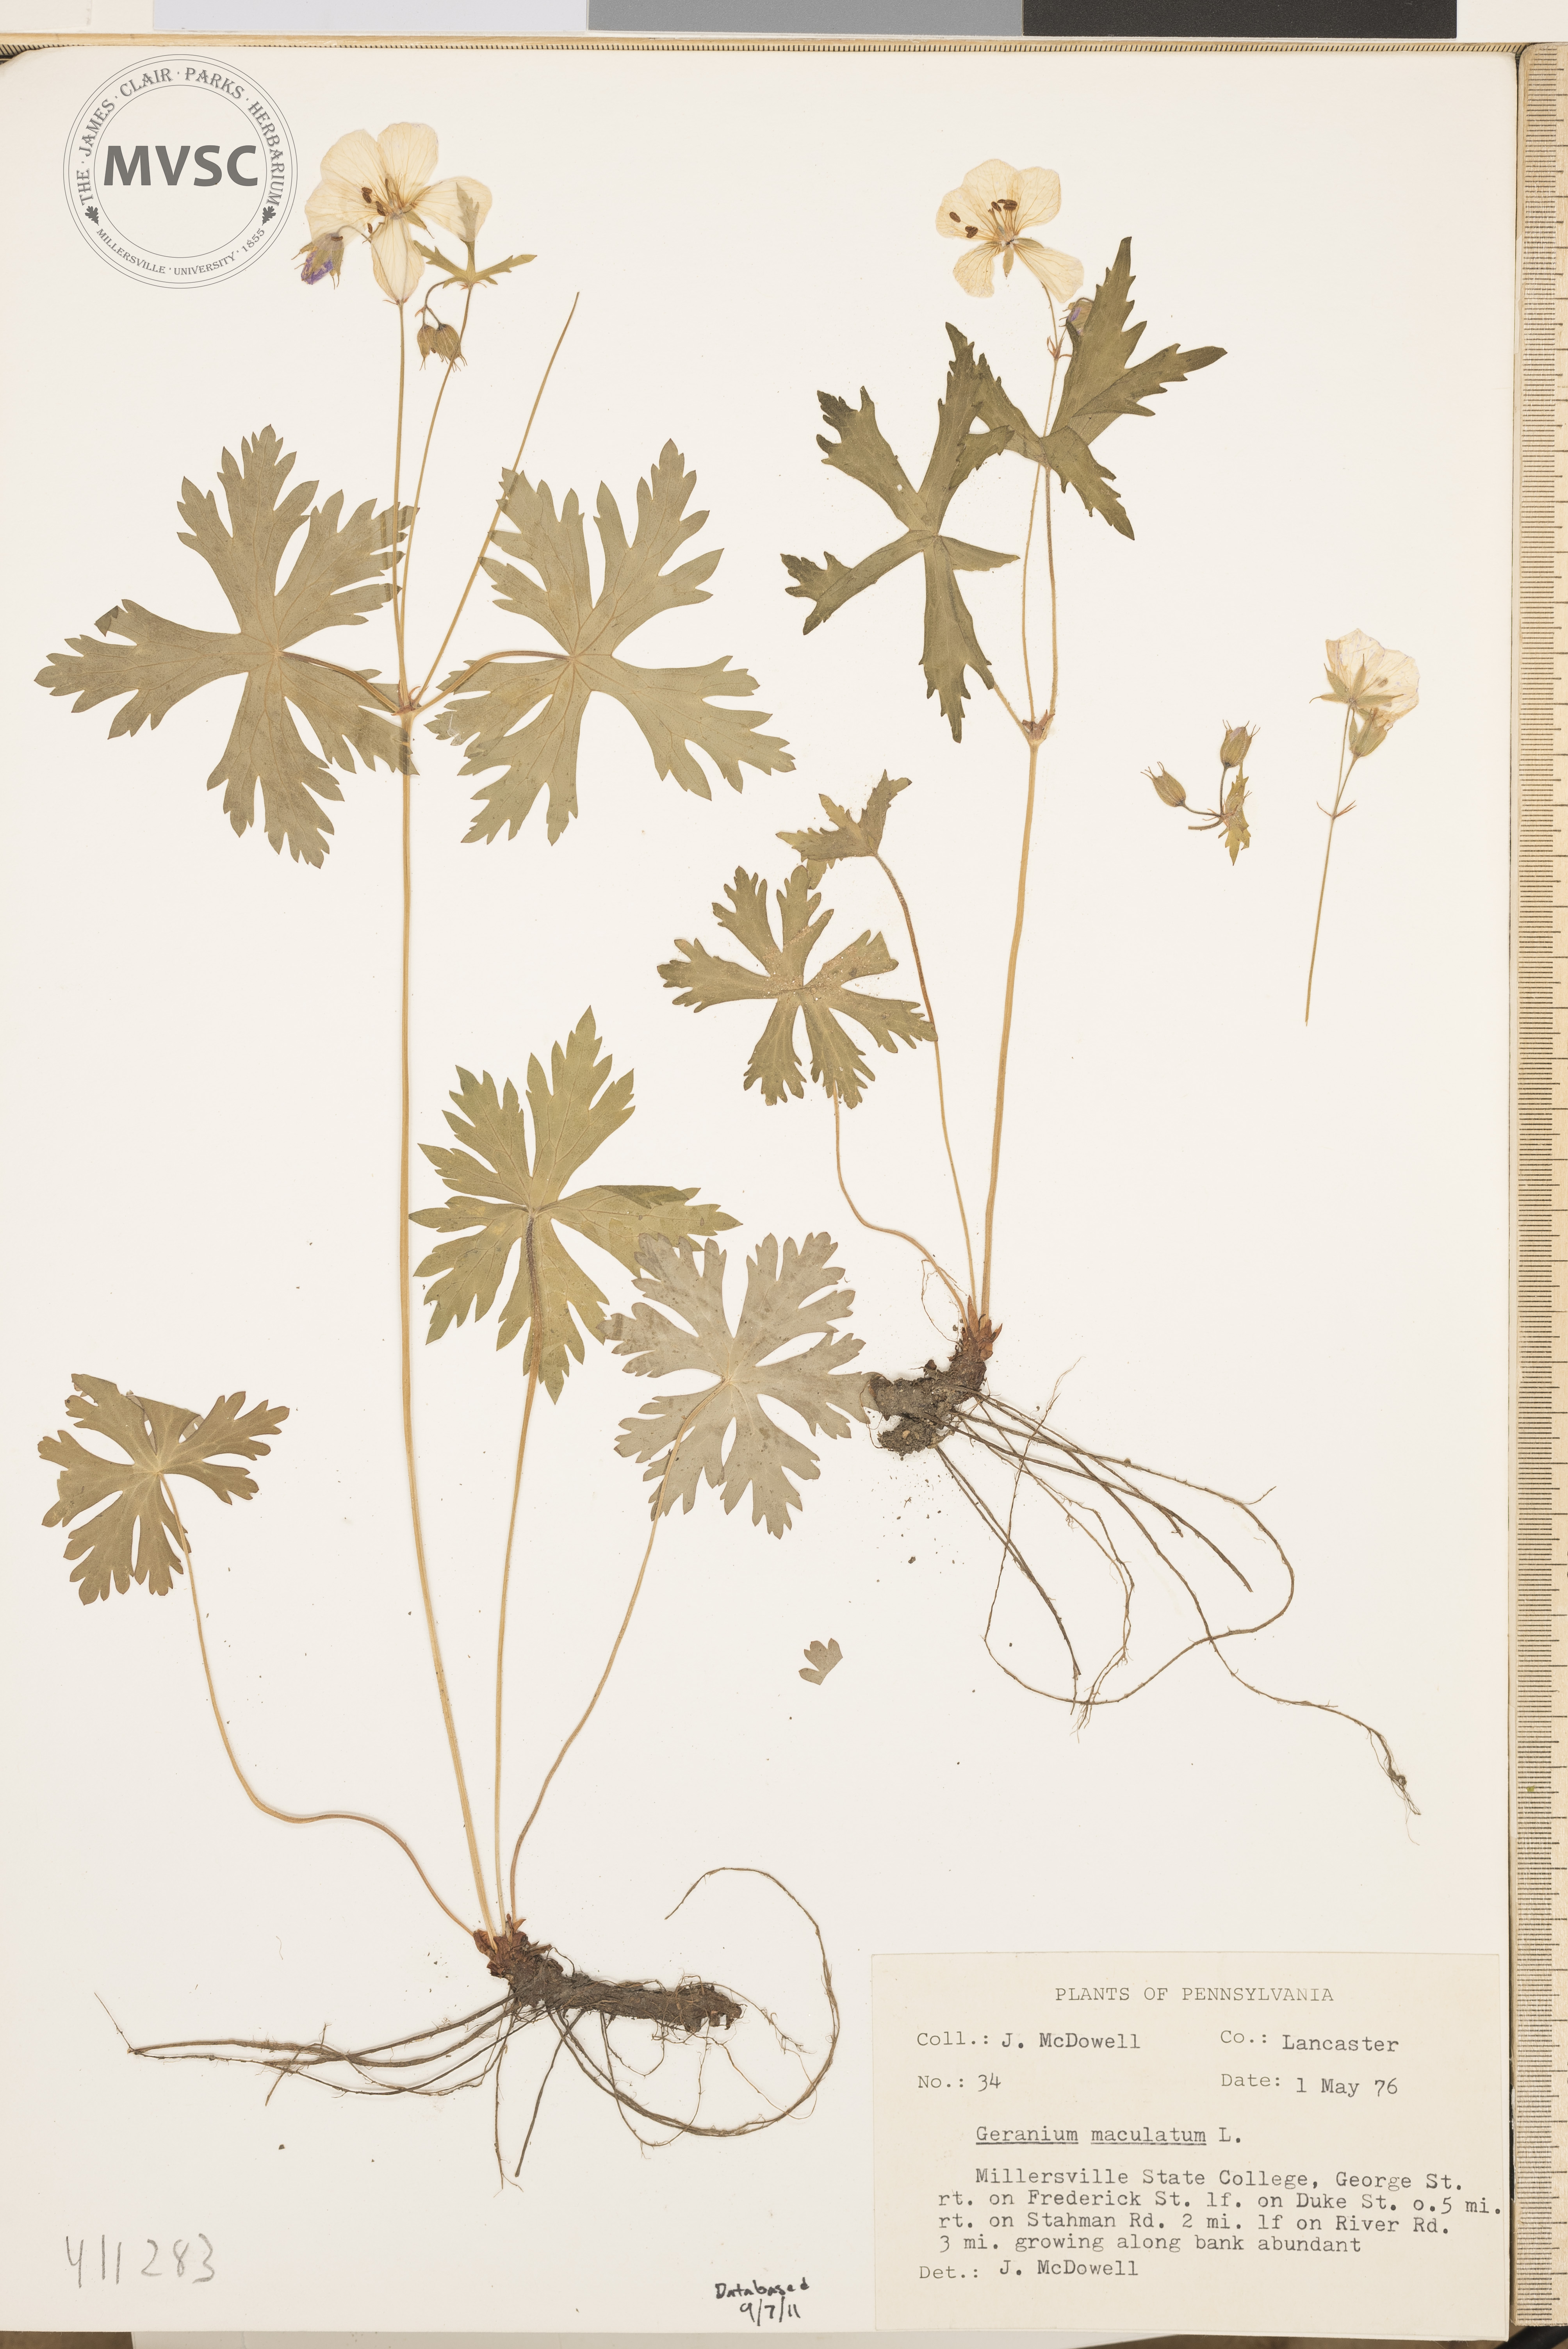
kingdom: Plantae
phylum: Tracheophyta
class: Magnoliopsida
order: Geraniales
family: Geraniaceae
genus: Geranium
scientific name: Geranium maculatum
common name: Spotted geranium
